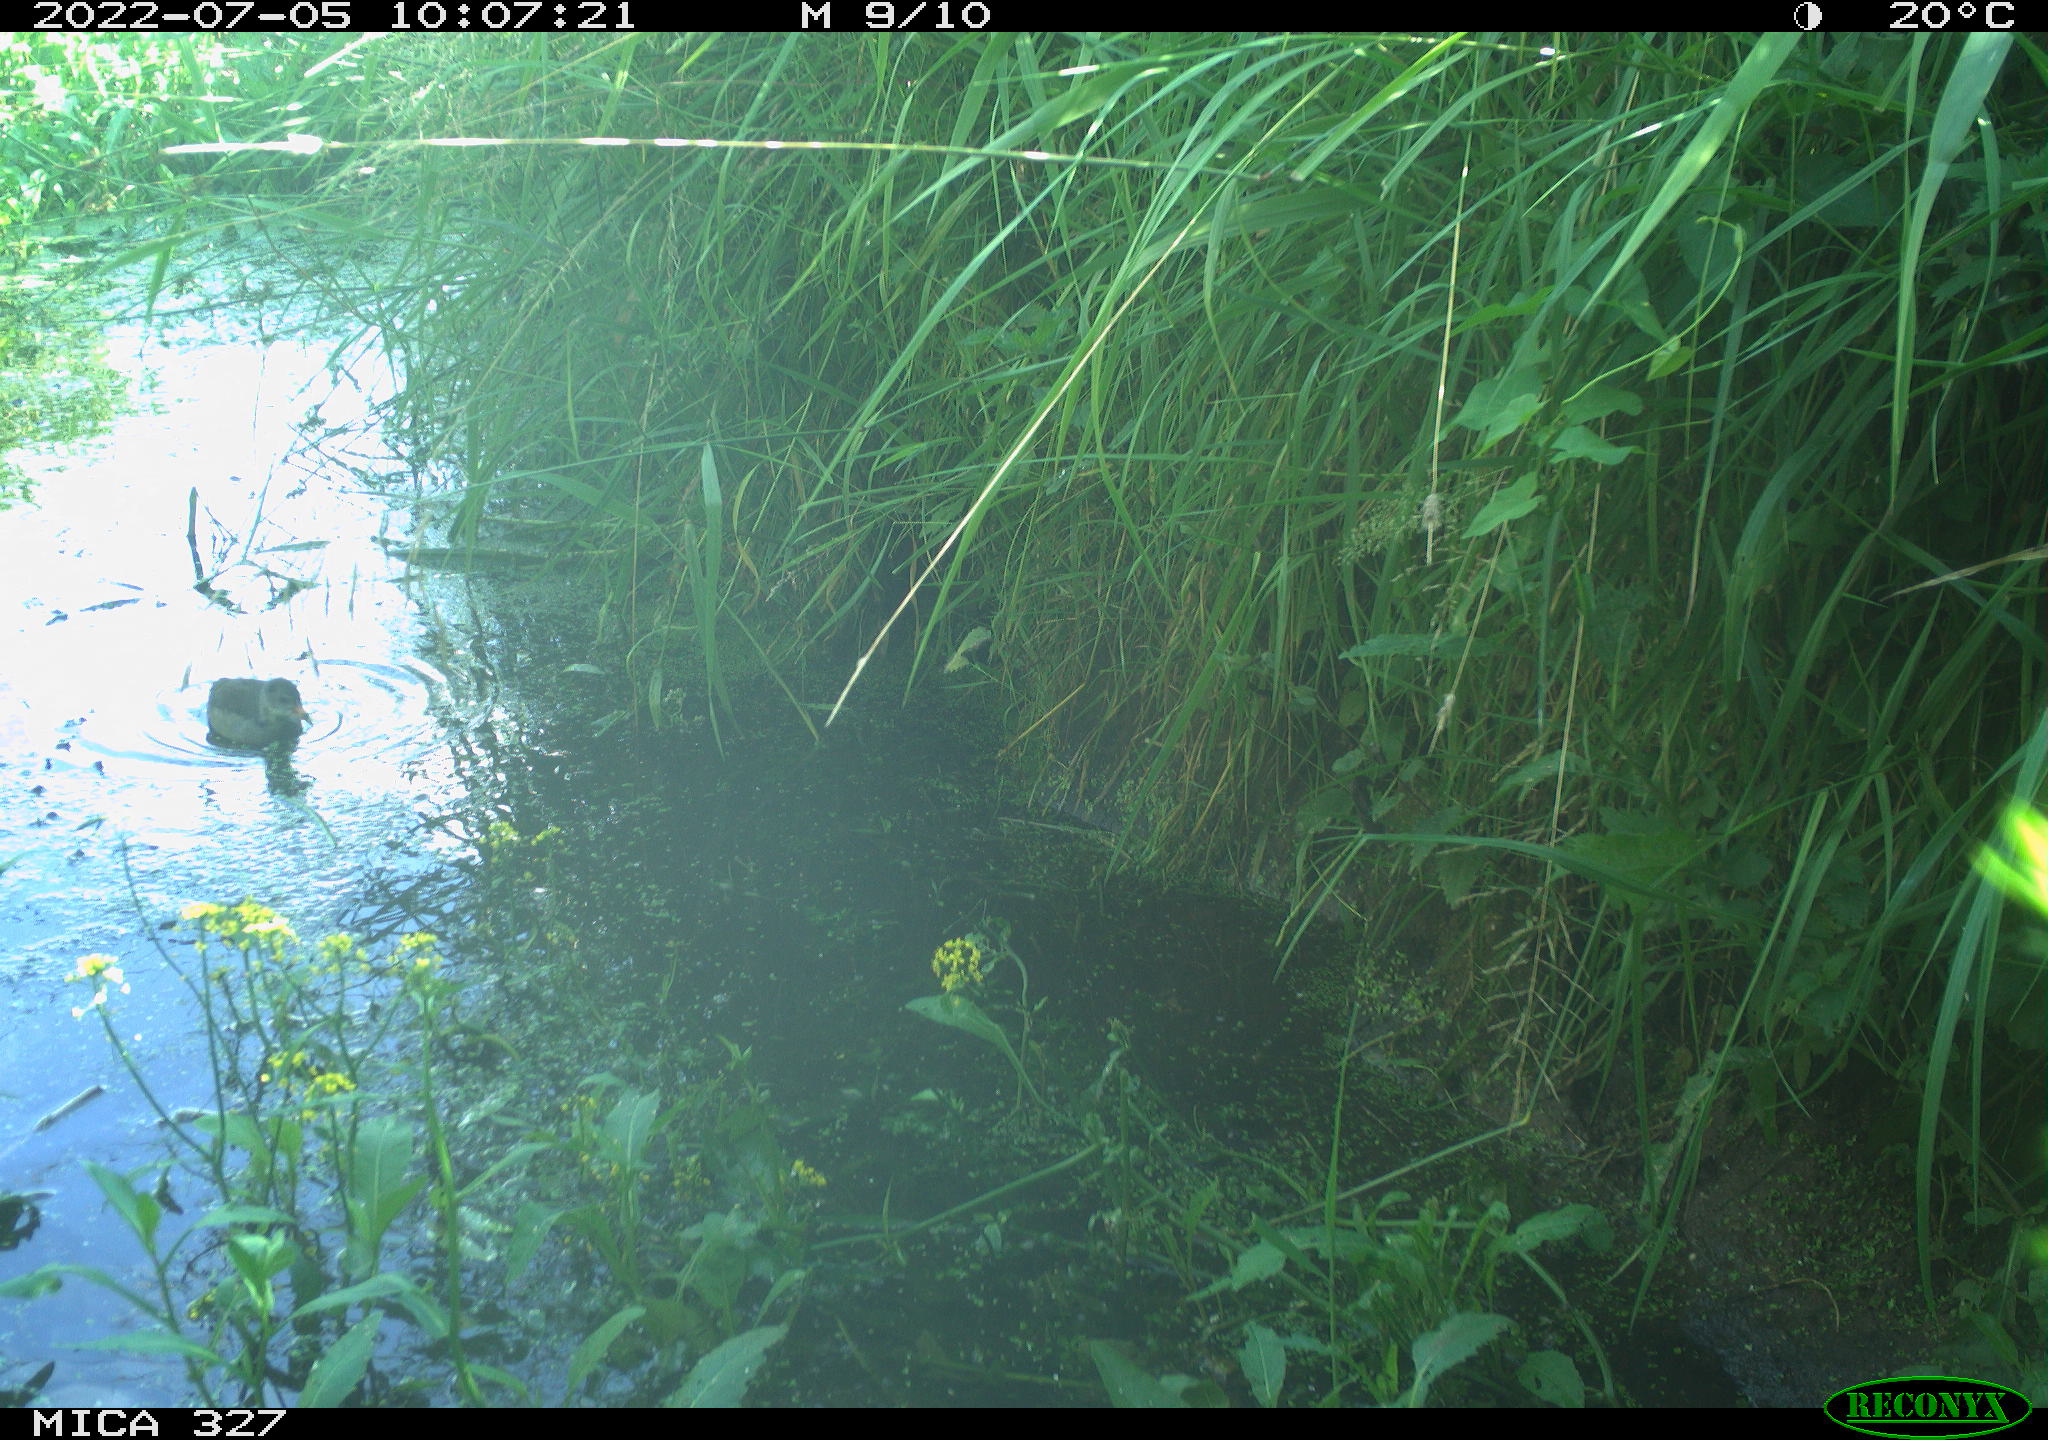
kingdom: Animalia
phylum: Chordata
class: Aves
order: Gruiformes
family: Rallidae
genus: Gallinula
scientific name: Gallinula chloropus
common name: Common moorhen
